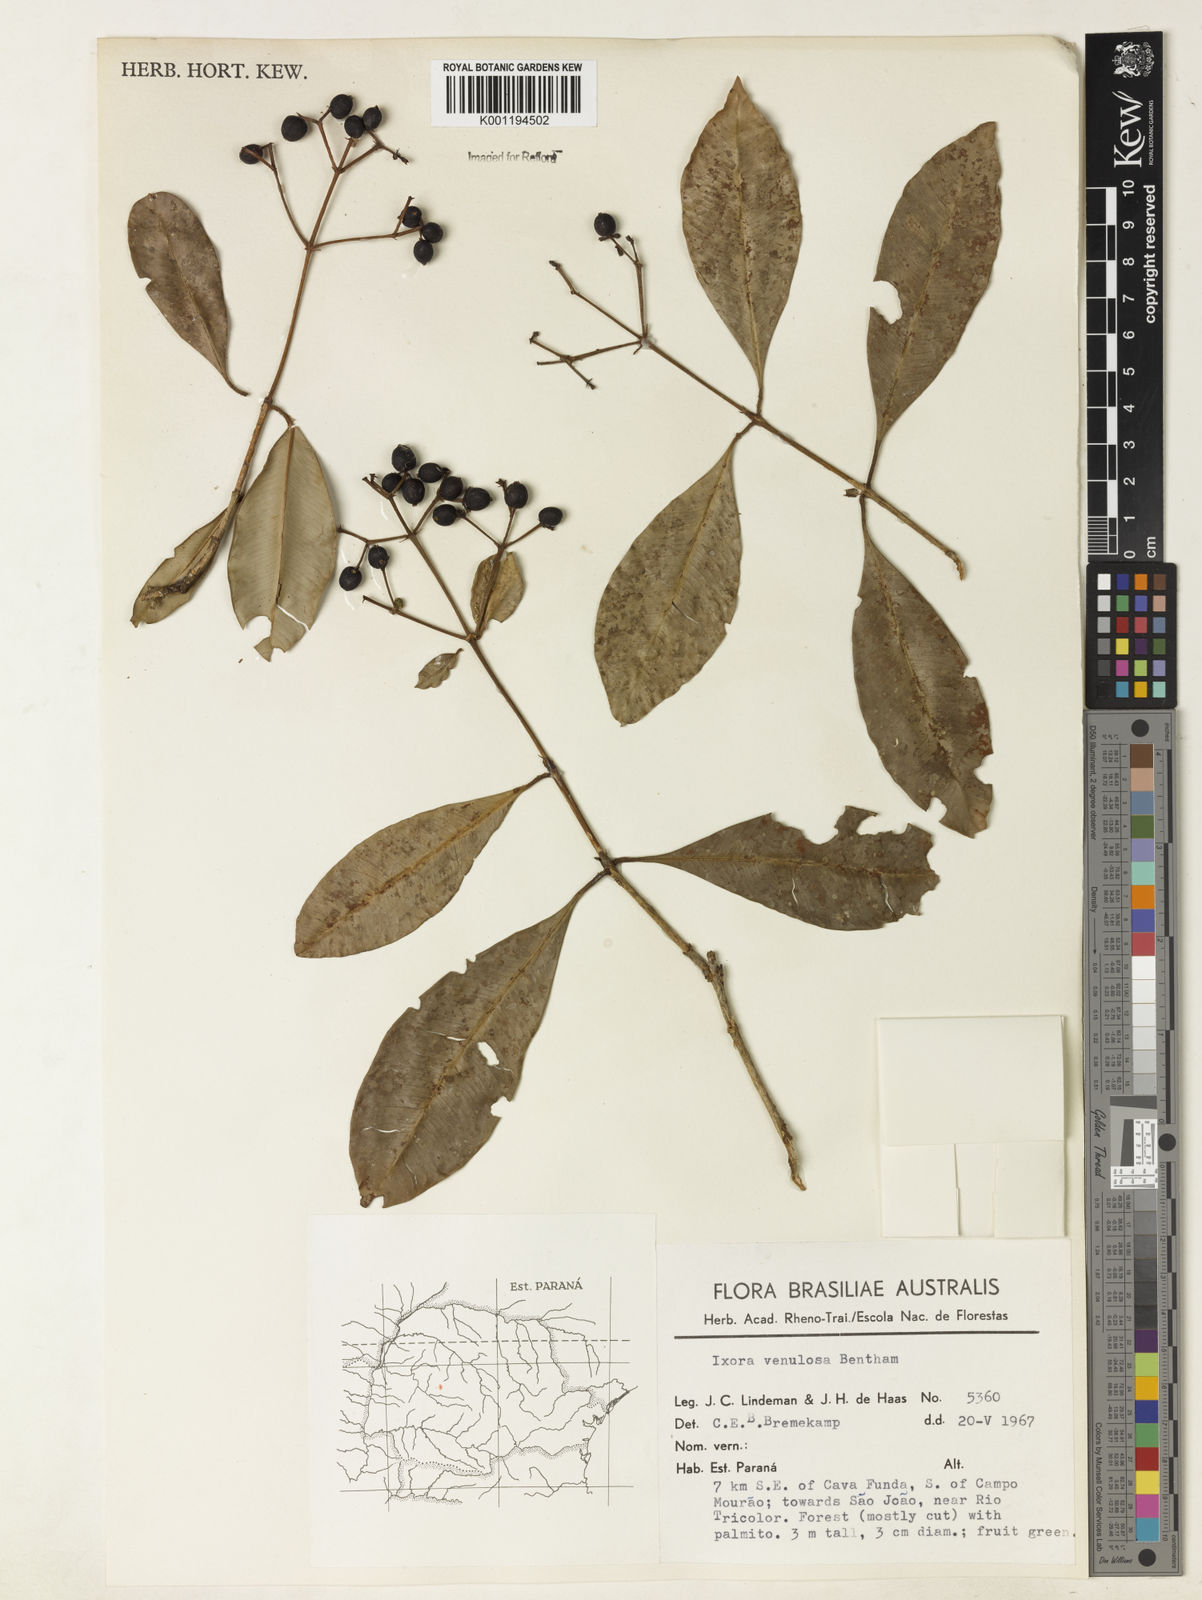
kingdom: Plantae
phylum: Tracheophyta
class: Magnoliopsida
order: Gentianales
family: Rubiaceae
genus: Ixora
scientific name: Ixora venulosa
